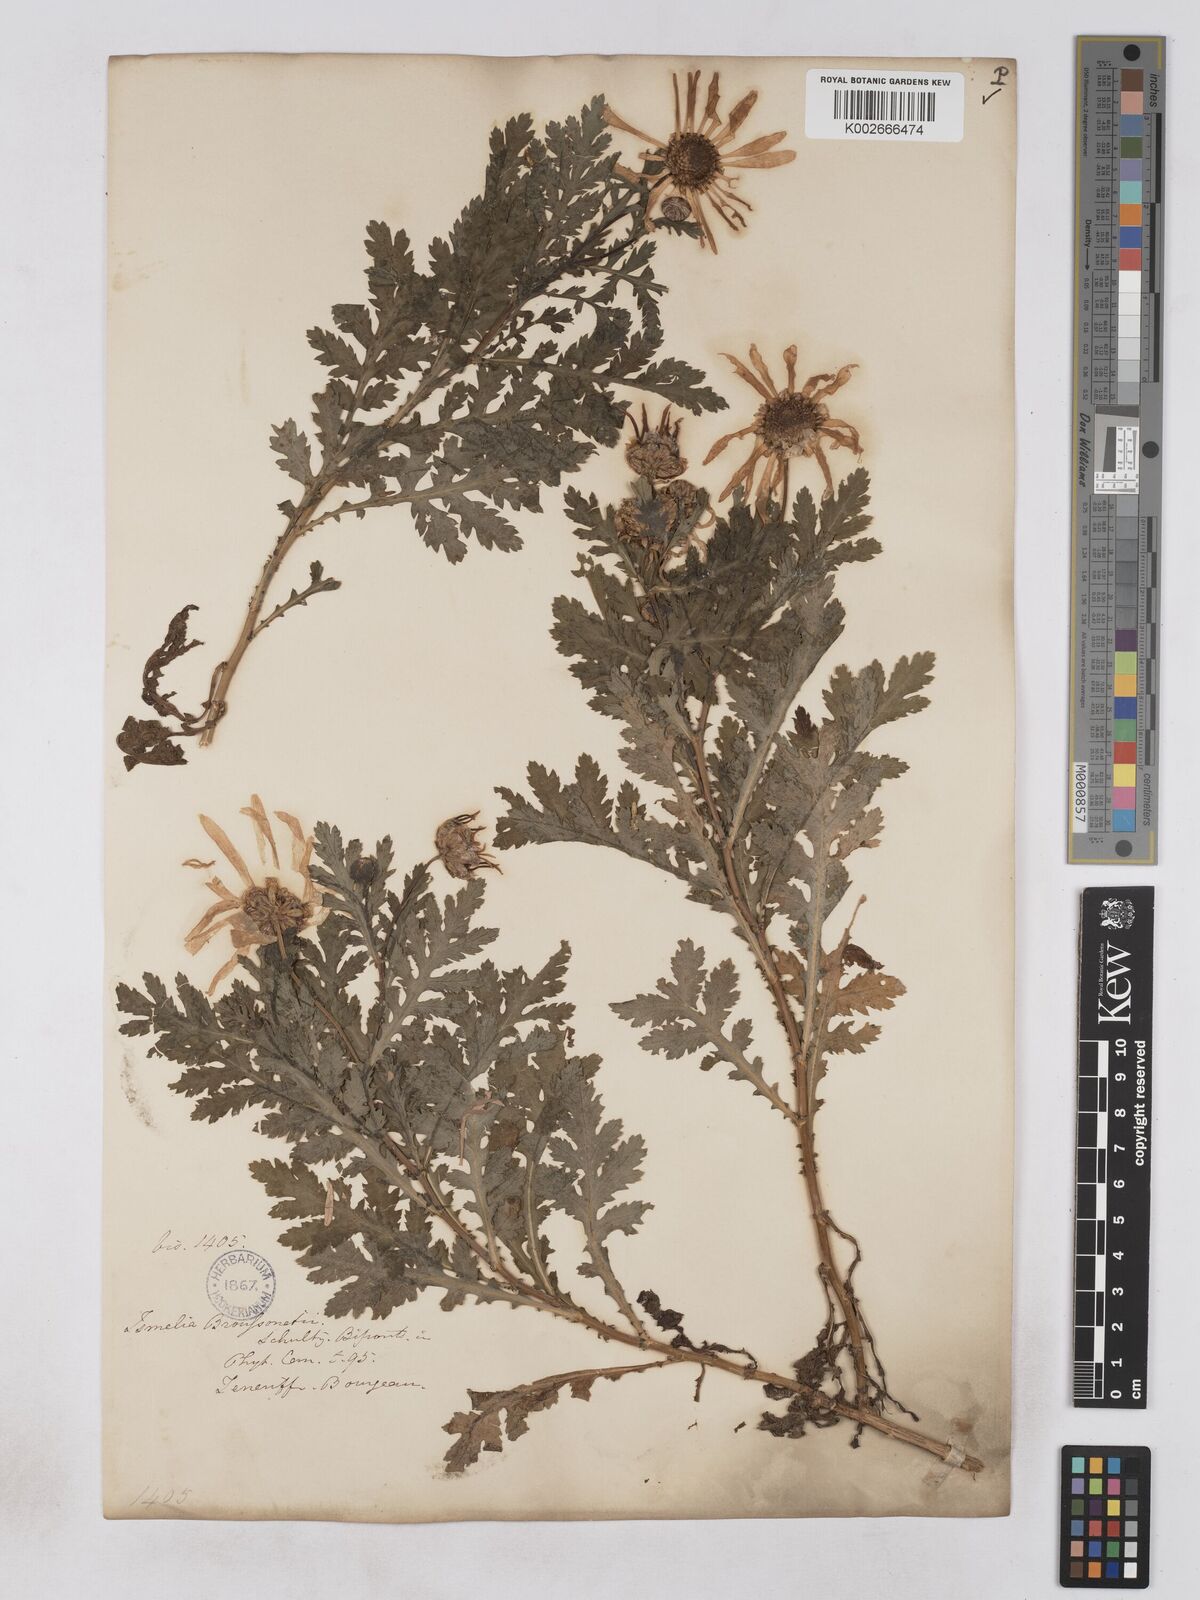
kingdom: Plantae
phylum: Tracheophyta
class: Magnoliopsida
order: Asterales
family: Asteraceae
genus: Argyranthemum
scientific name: Argyranthemum broussonetii
